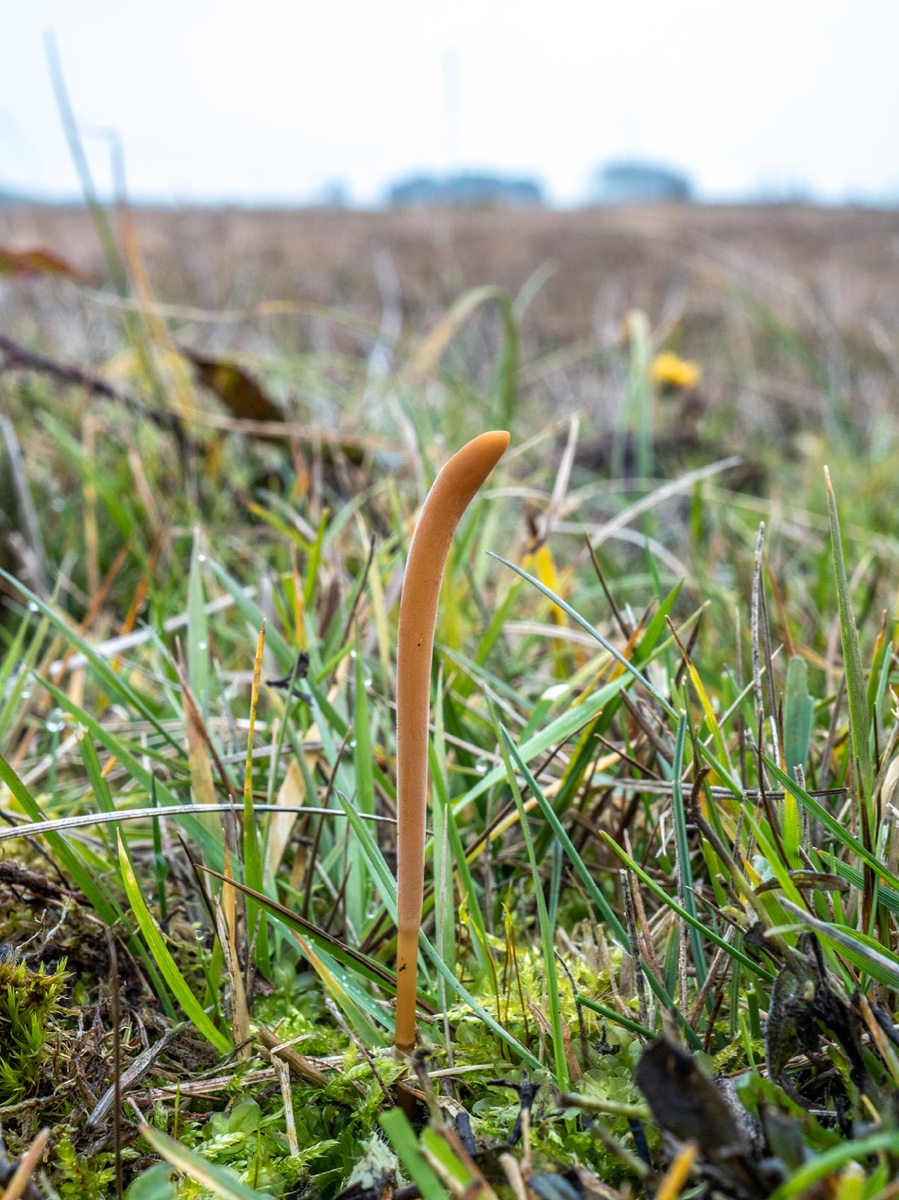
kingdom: Fungi
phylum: Basidiomycota
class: Agaricomycetes
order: Agaricales
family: Typhulaceae
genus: Typhula
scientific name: Typhula fistulosa
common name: pibet rørkølle
